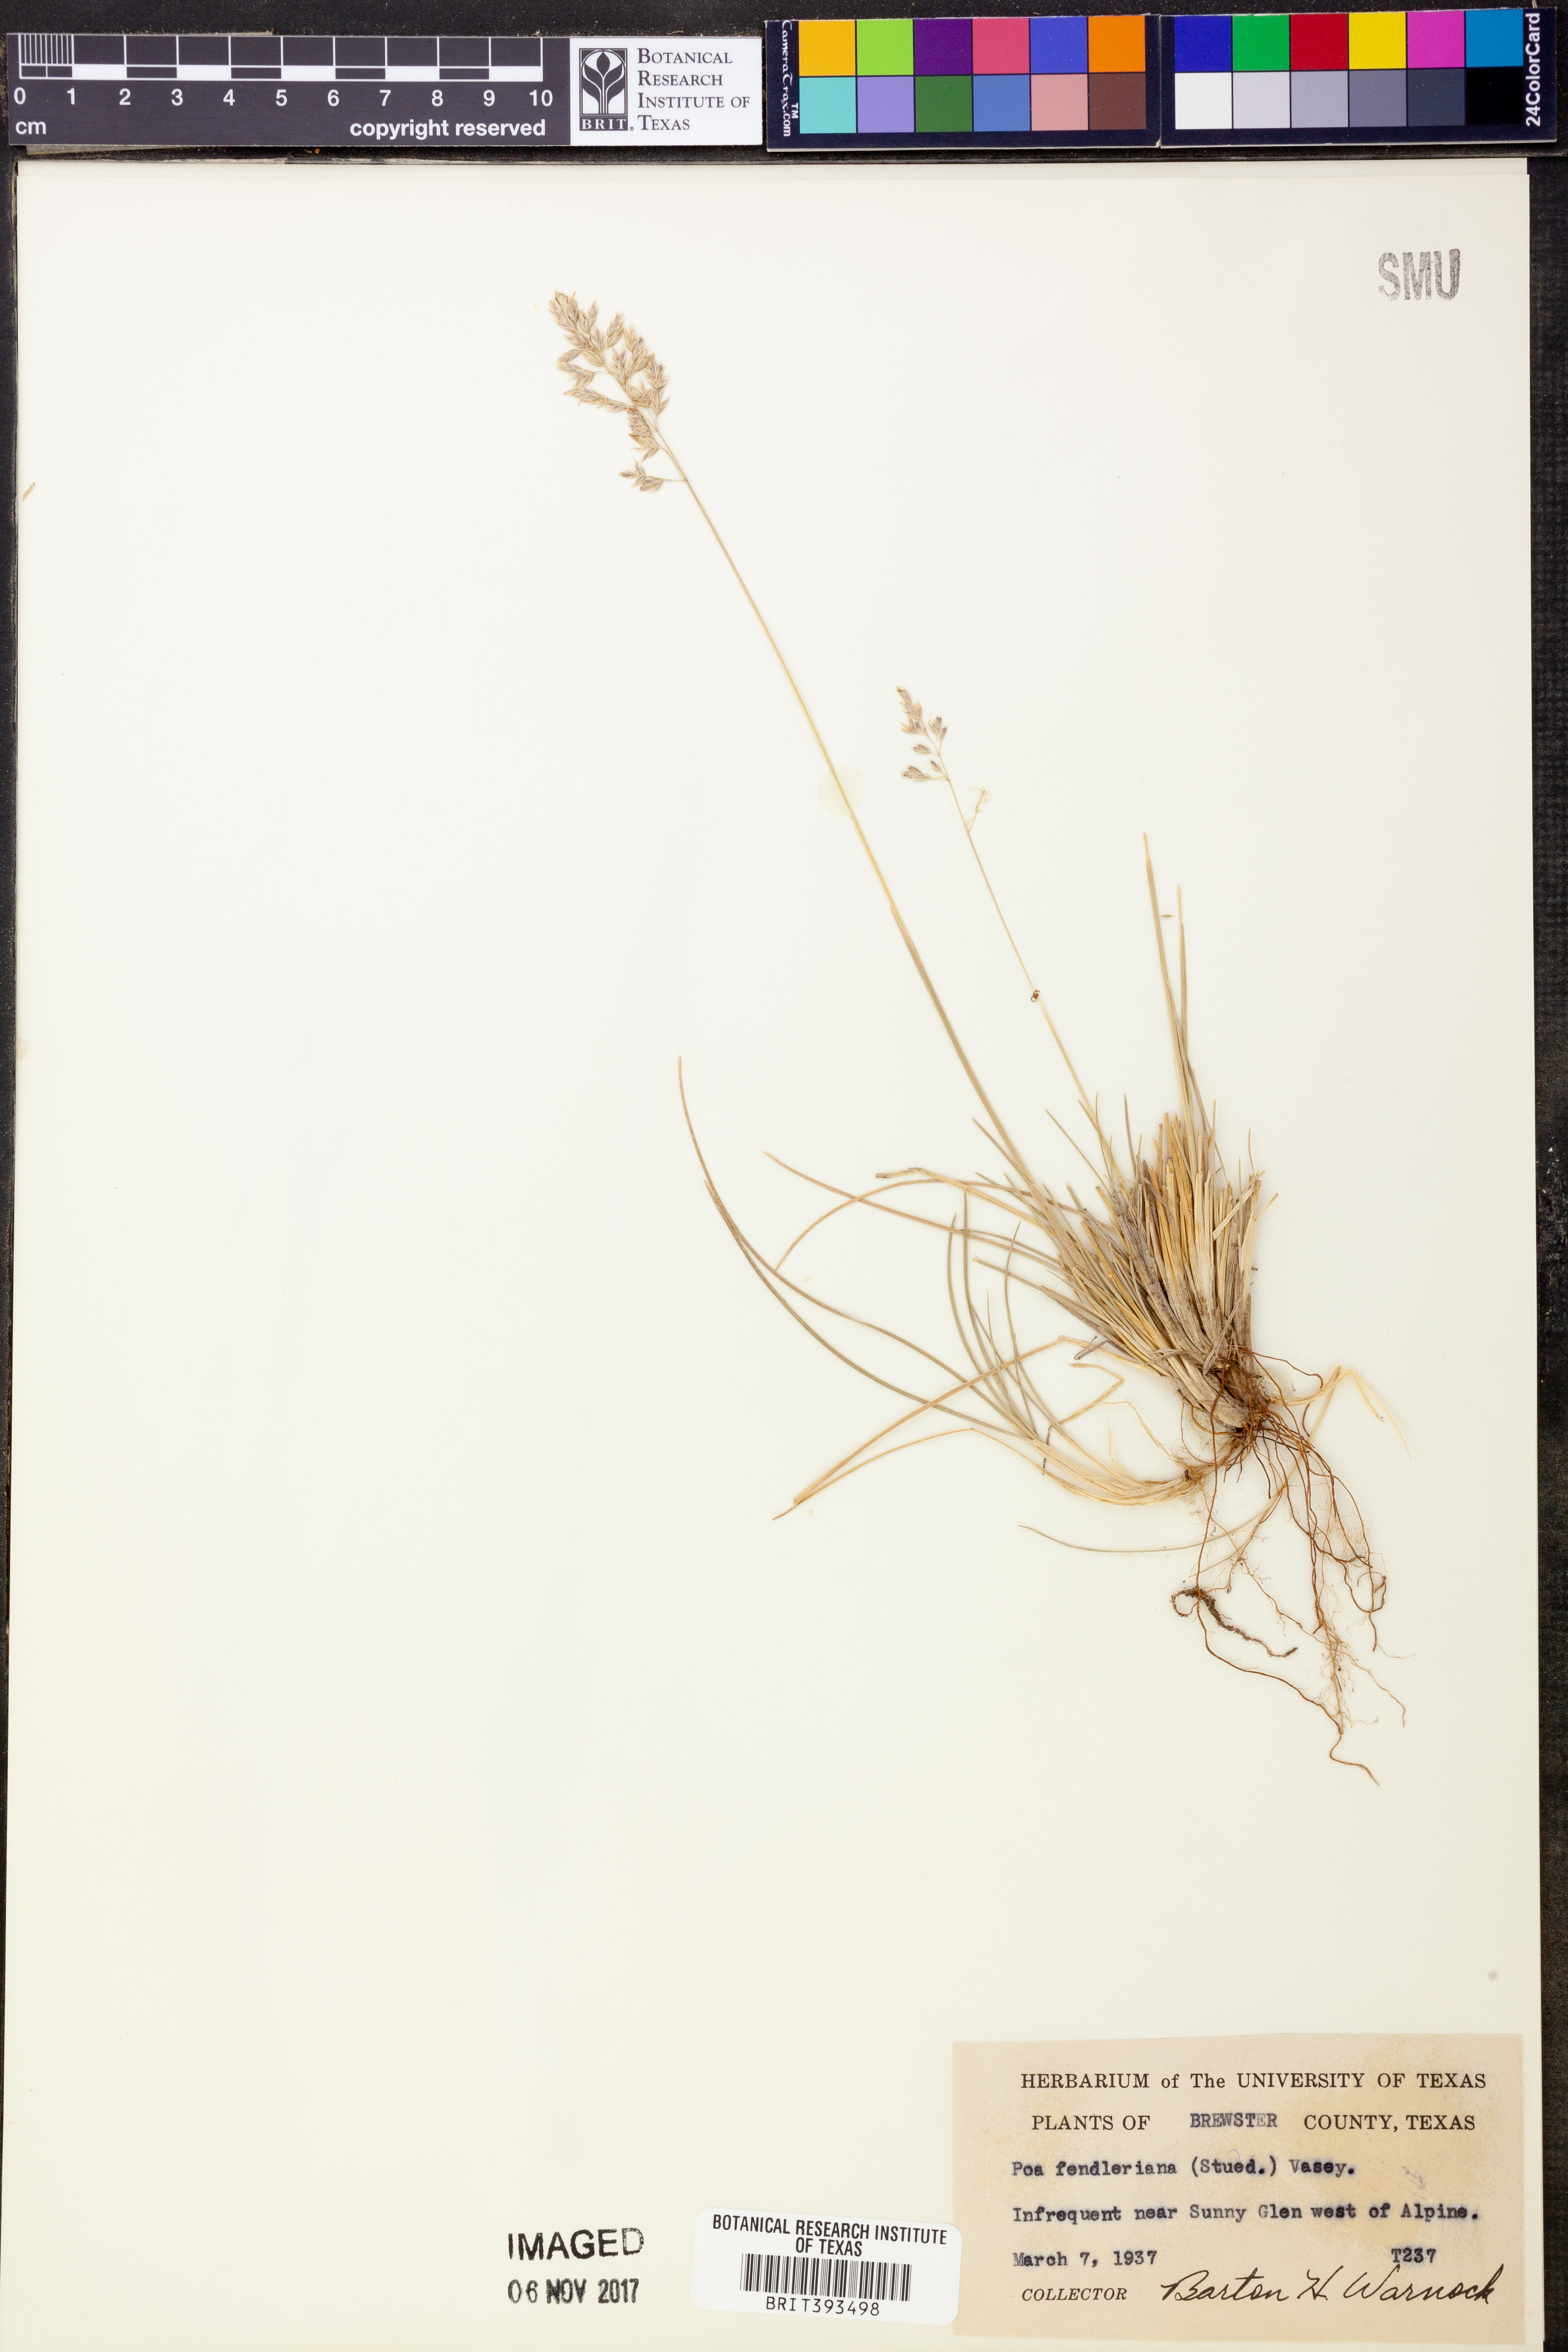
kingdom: Plantae
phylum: Tracheophyta
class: Liliopsida
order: Poales
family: Poaceae
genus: Poa
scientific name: Poa fendleriana
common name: Mutton bluegrass
